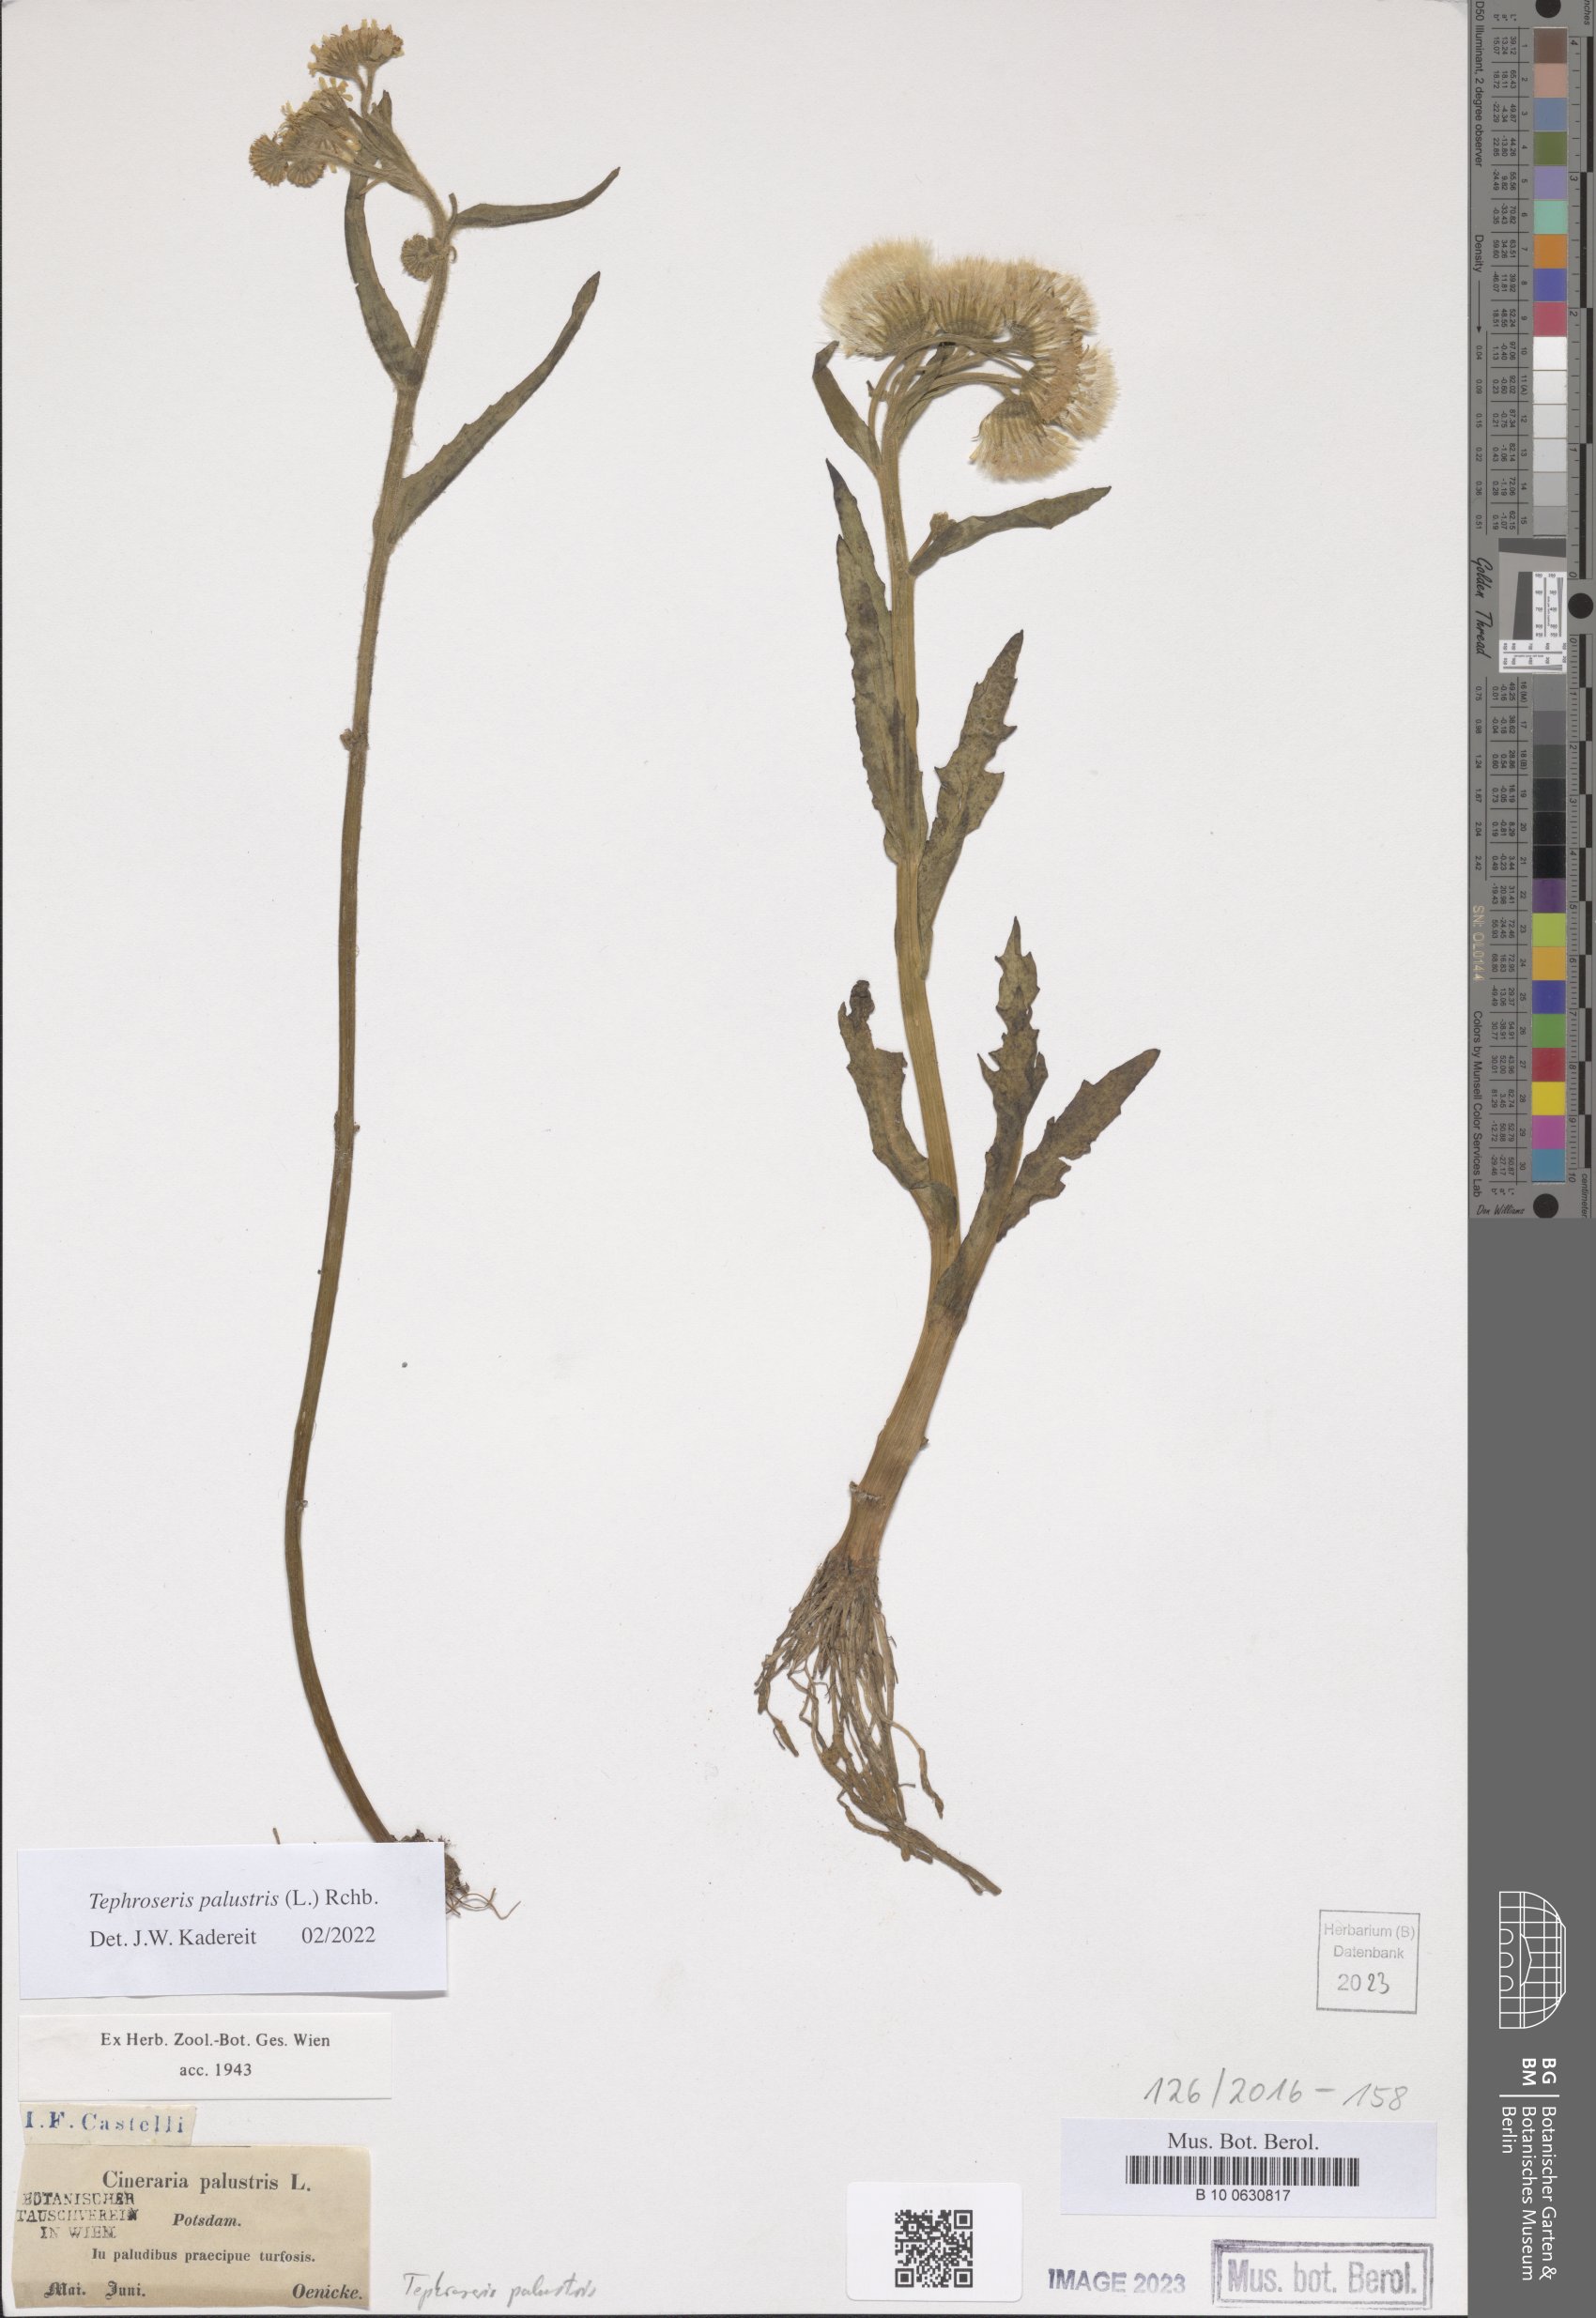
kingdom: Plantae
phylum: Tracheophyta
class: Magnoliopsida
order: Asterales
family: Asteraceae
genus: Tephroseris
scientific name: Tephroseris palustris
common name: Marsh fleawort
